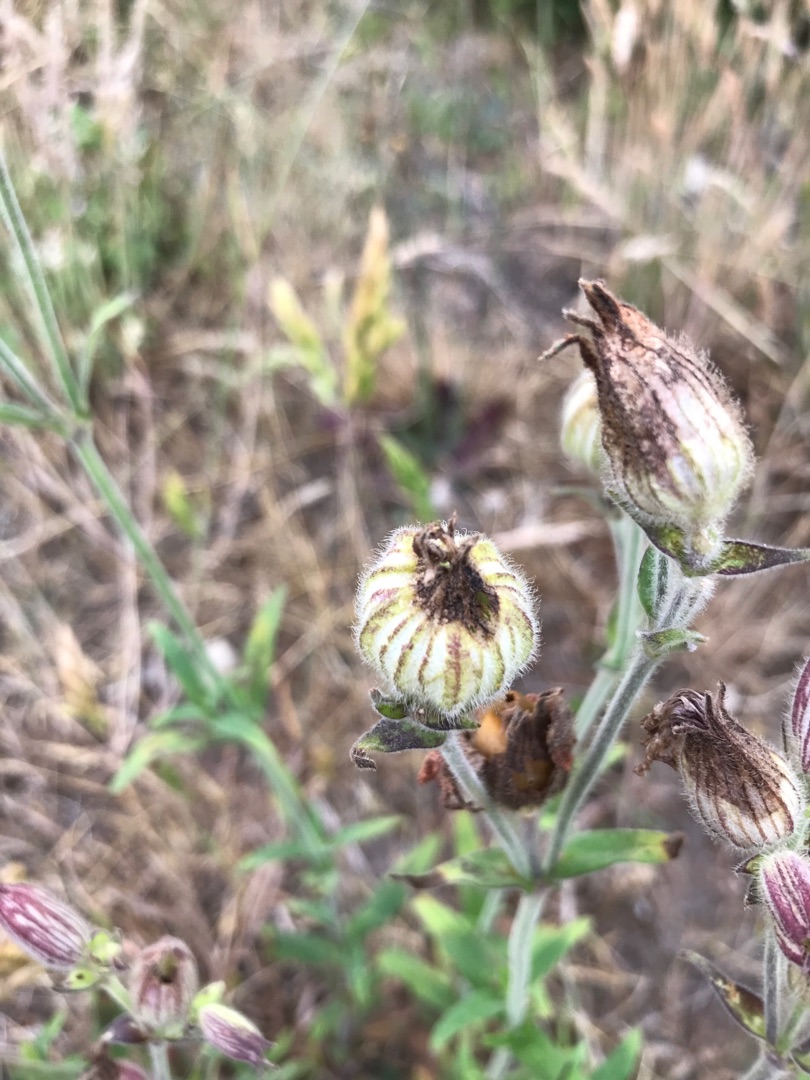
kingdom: Plantae
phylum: Tracheophyta
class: Magnoliopsida
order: Caryophyllales
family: Caryophyllaceae
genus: Silene
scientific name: Silene latifolia
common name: Aftenpragtstjerne
